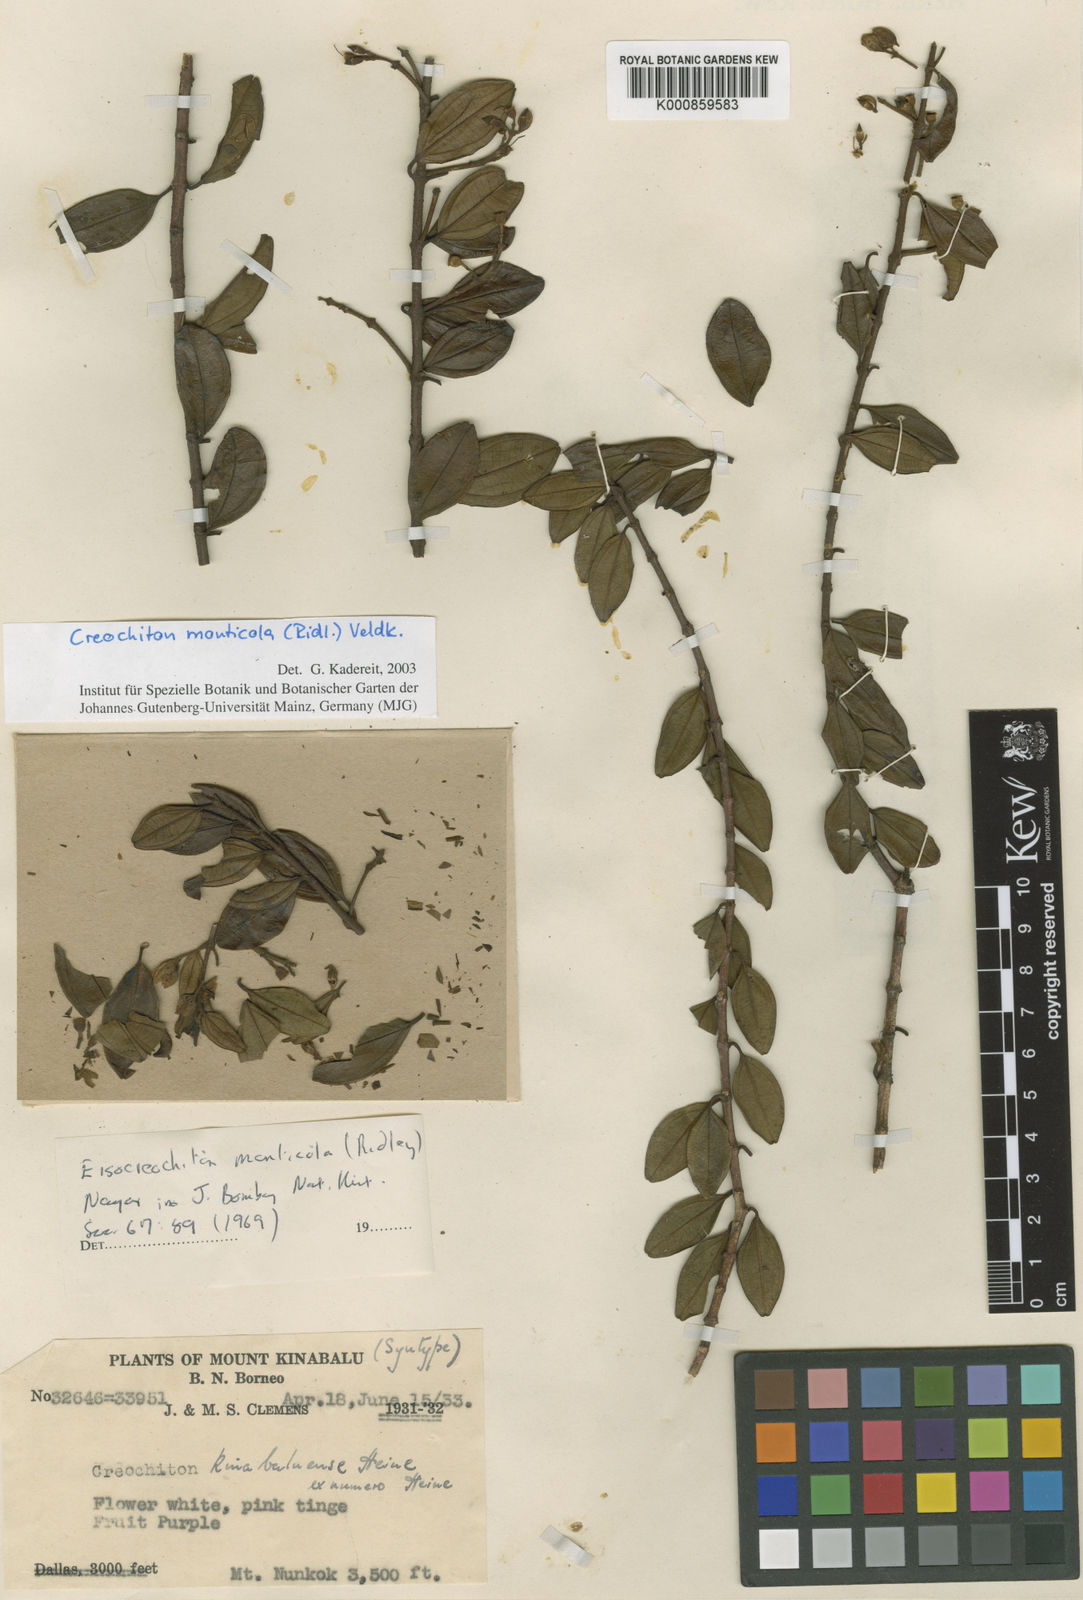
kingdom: Plantae
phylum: Tracheophyta
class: Magnoliopsida
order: Myrtales
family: Melastomataceae
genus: Creochiton
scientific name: Creochiton monticola
